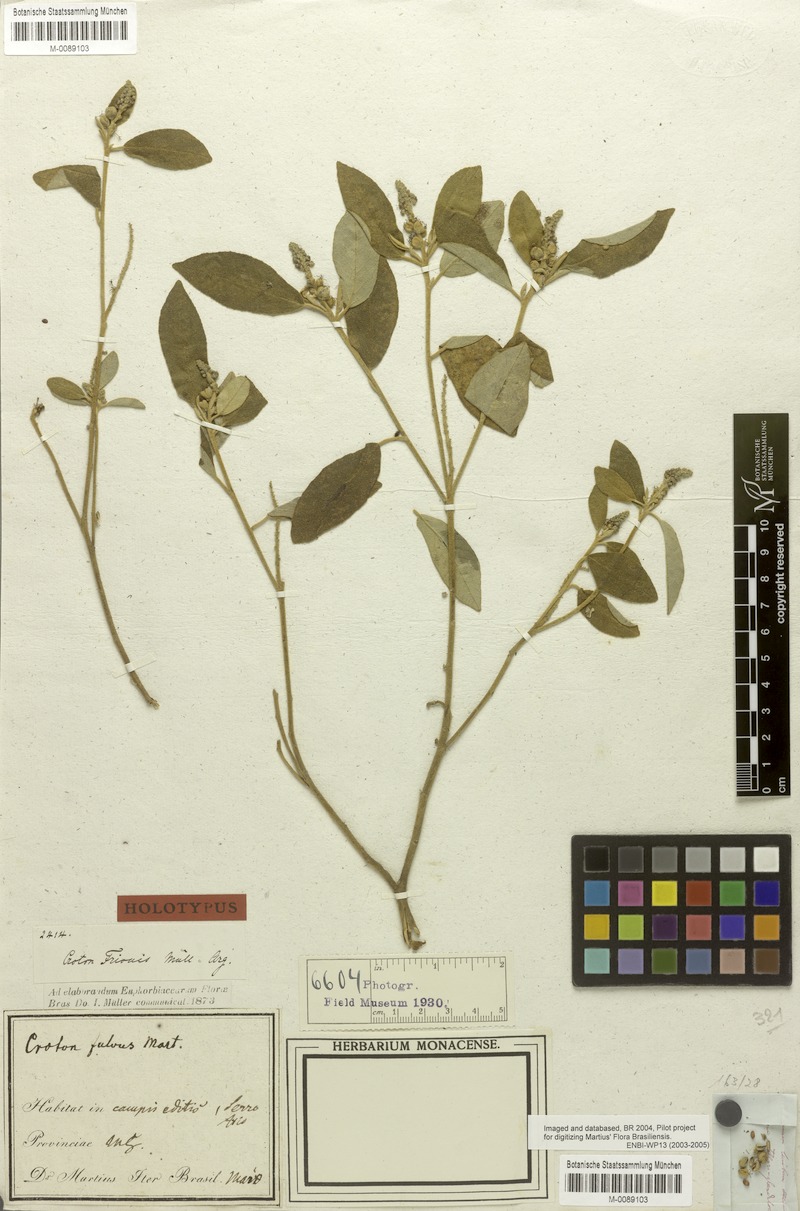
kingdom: Plantae
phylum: Tracheophyta
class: Magnoliopsida
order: Malpighiales
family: Euphorbiaceae
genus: Croton
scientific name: Croton frionis
